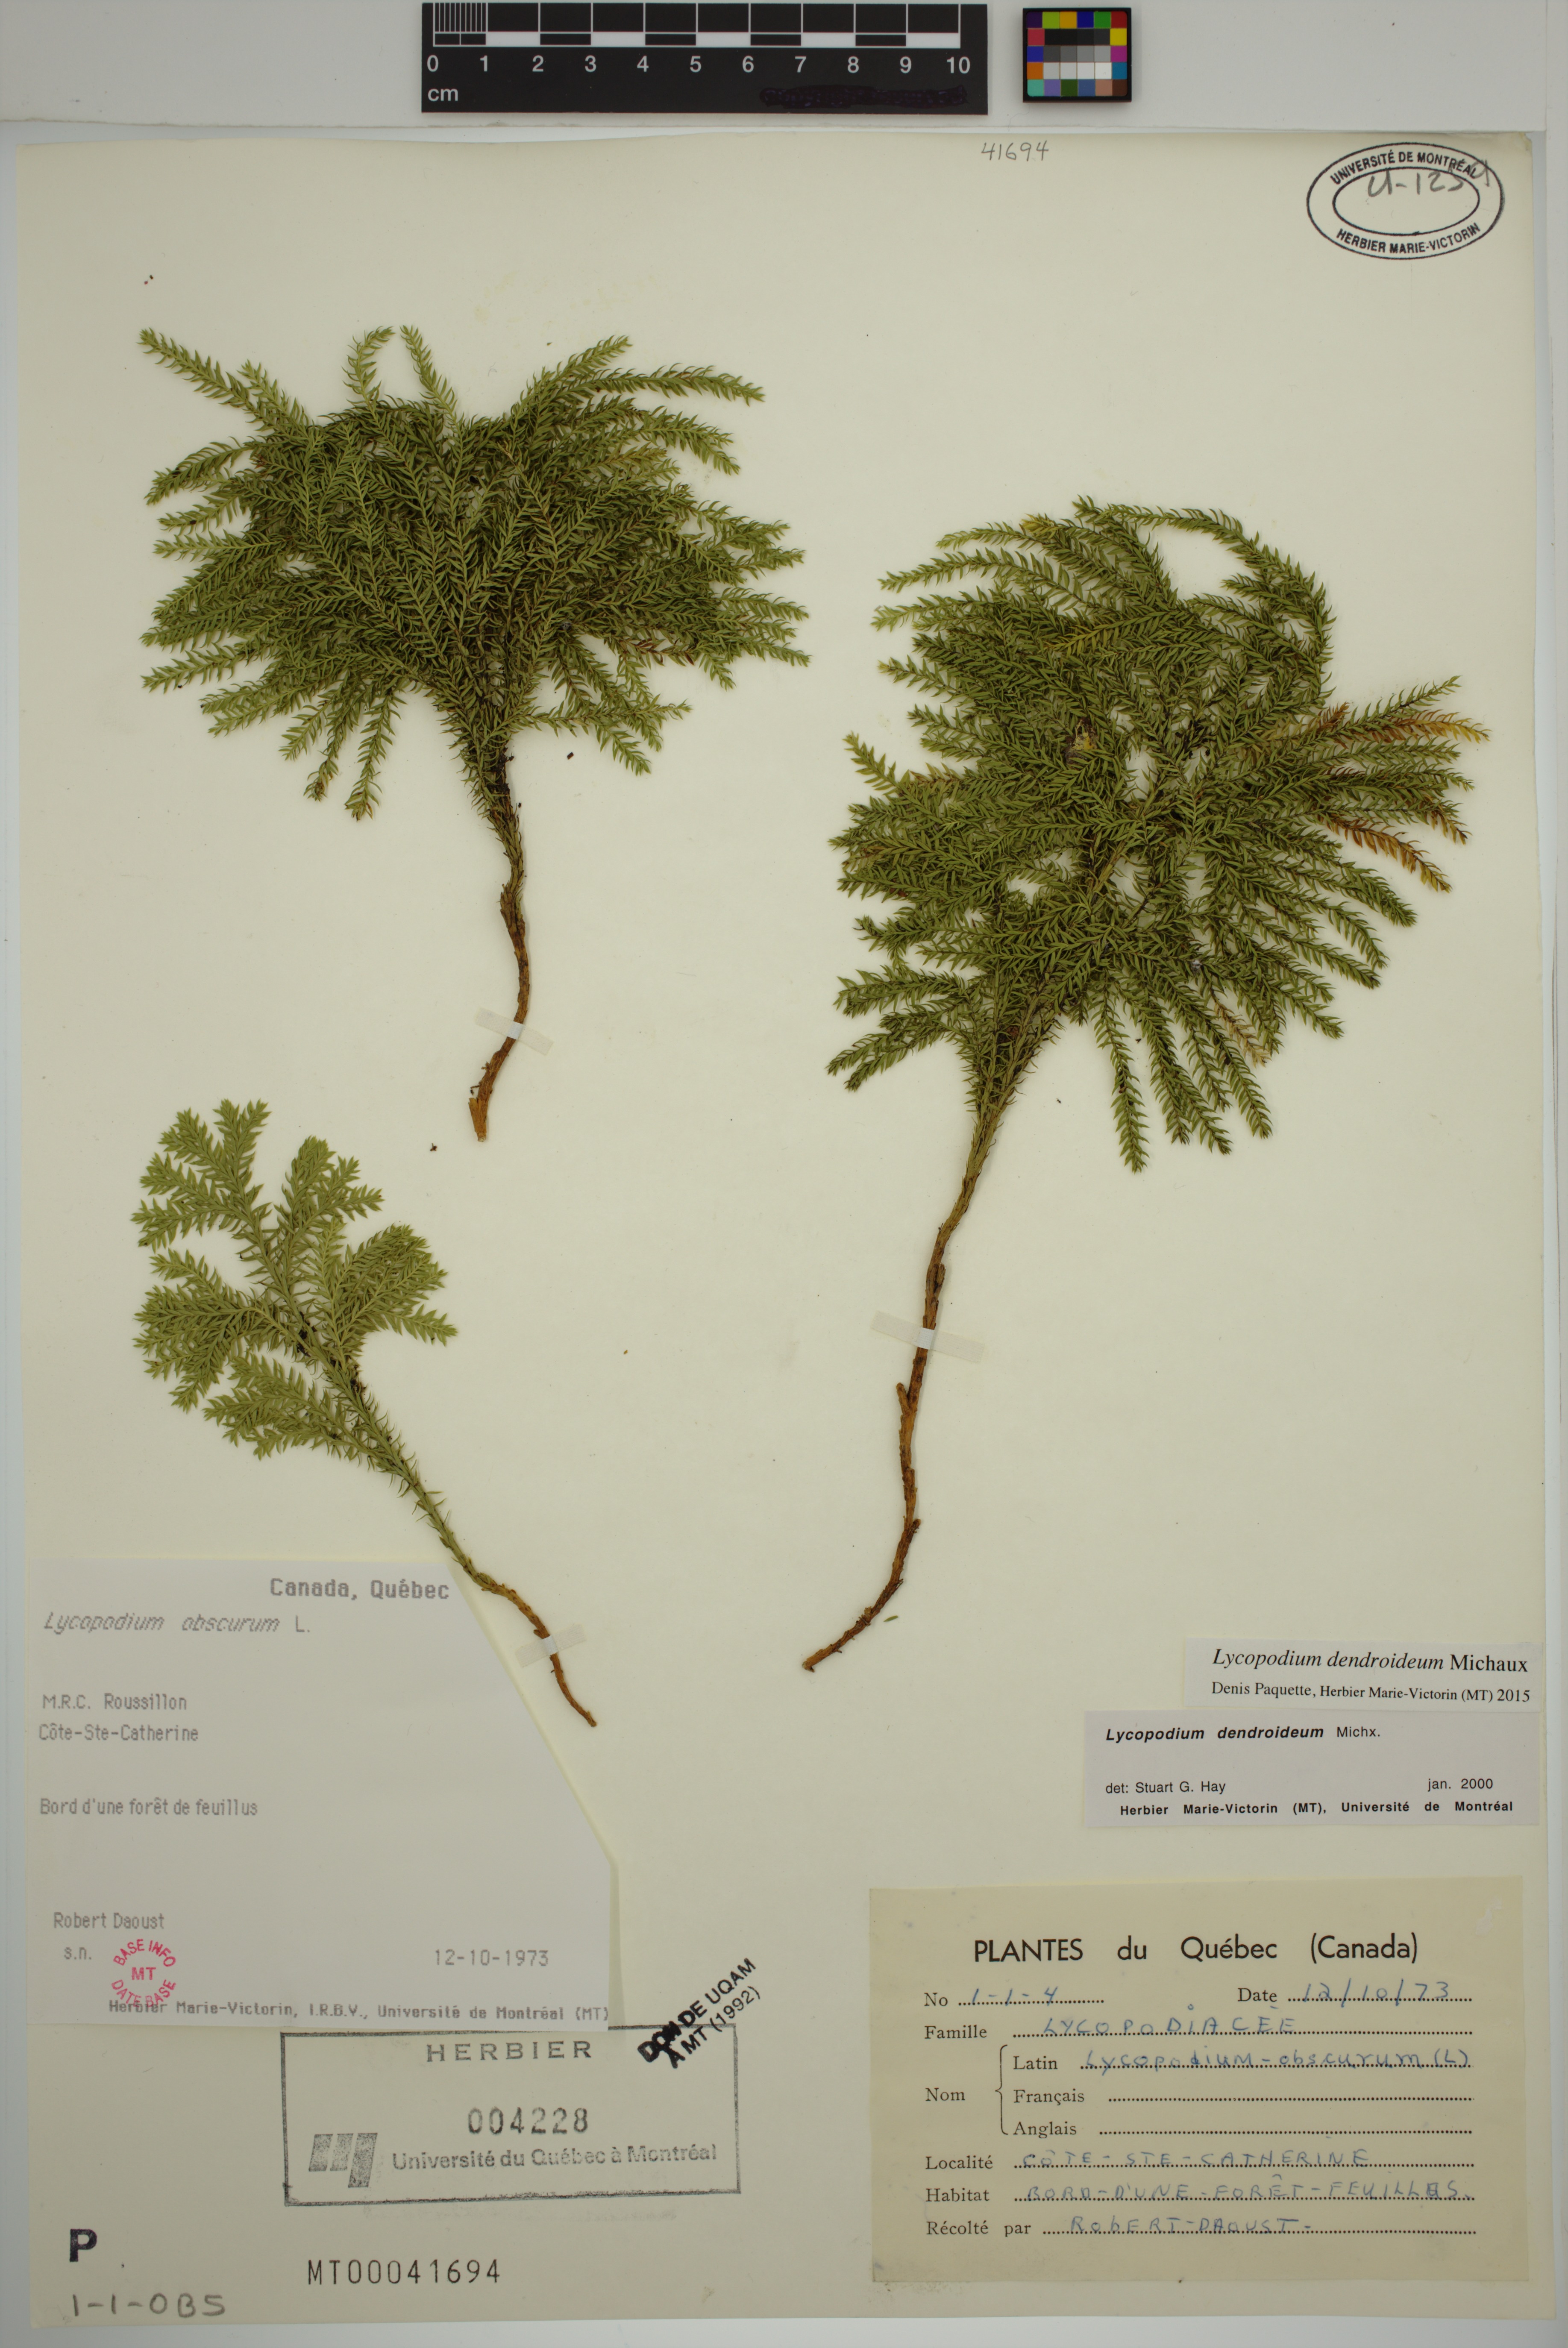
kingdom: Plantae
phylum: Tracheophyta
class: Lycopodiopsida
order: Lycopodiales
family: Lycopodiaceae
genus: Dendrolycopodium
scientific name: Dendrolycopodium dendroideum
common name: Northern tree-clubmoss
